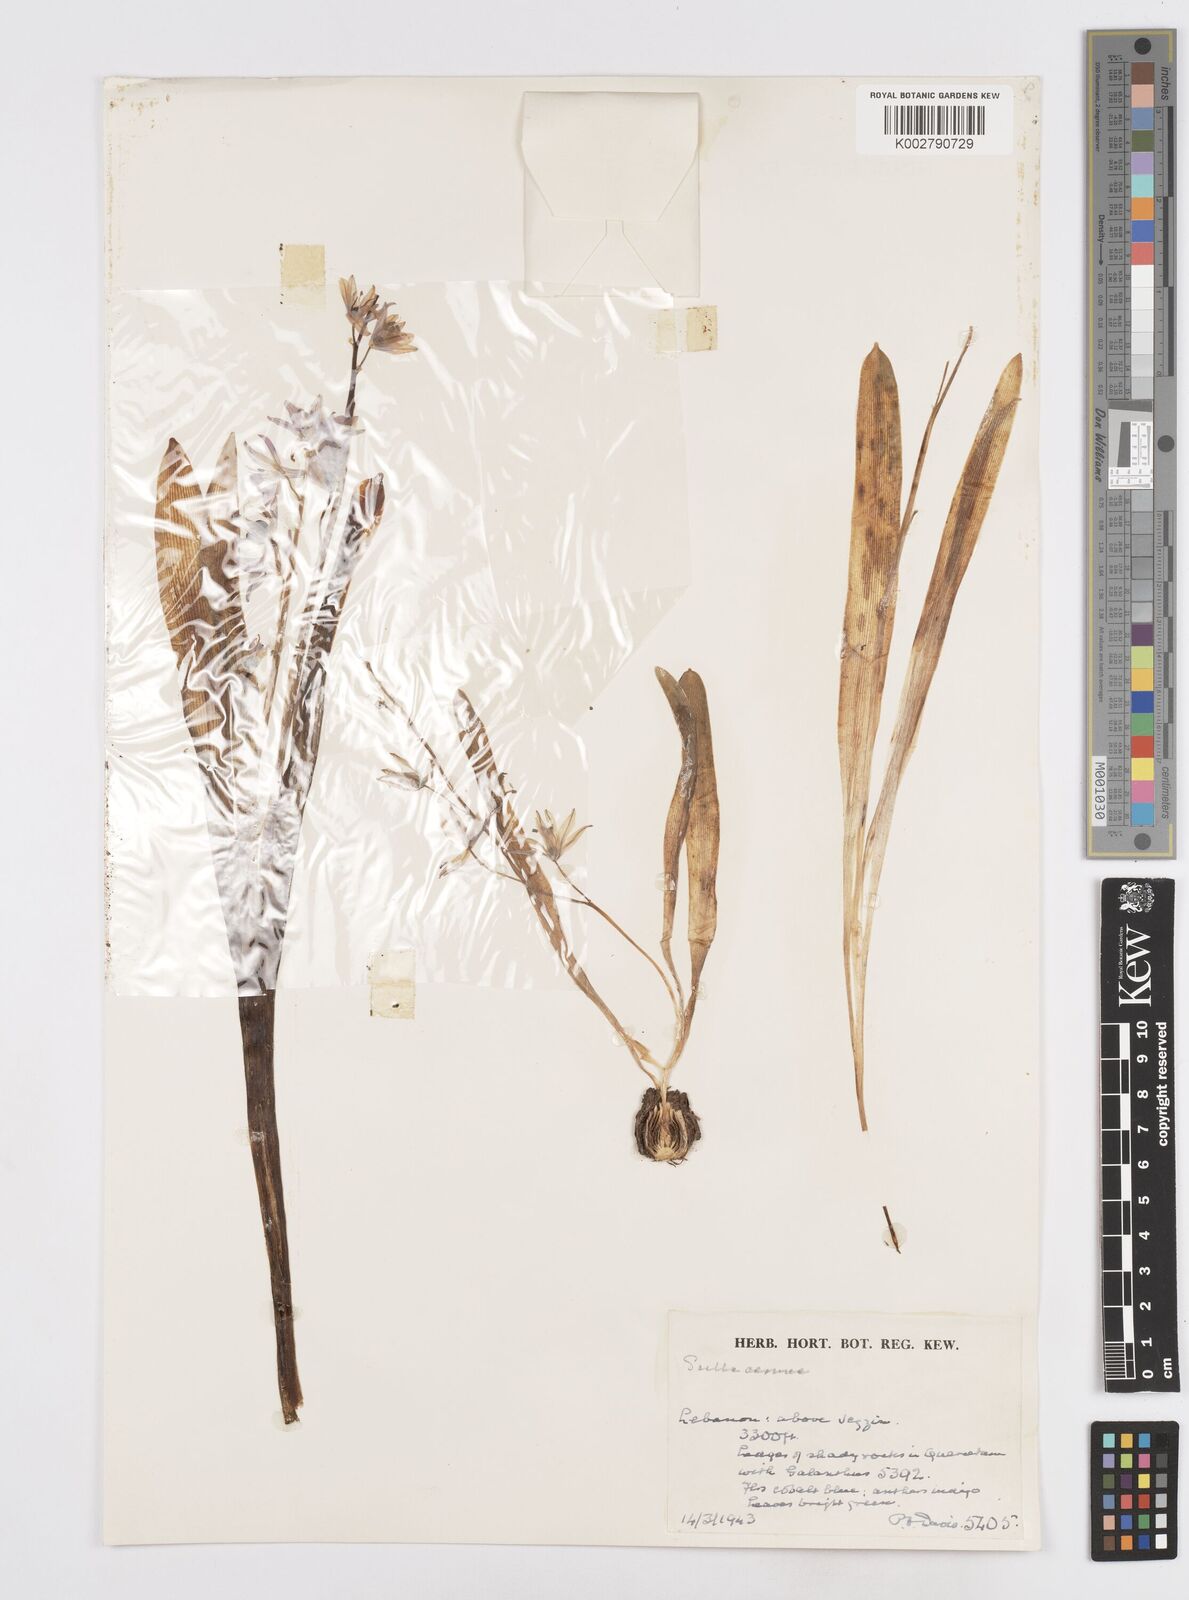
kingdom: Plantae
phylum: Tracheophyta
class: Liliopsida
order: Asparagales
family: Asparagaceae
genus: Scilla
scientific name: Scilla siberica
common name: Siberian squill
